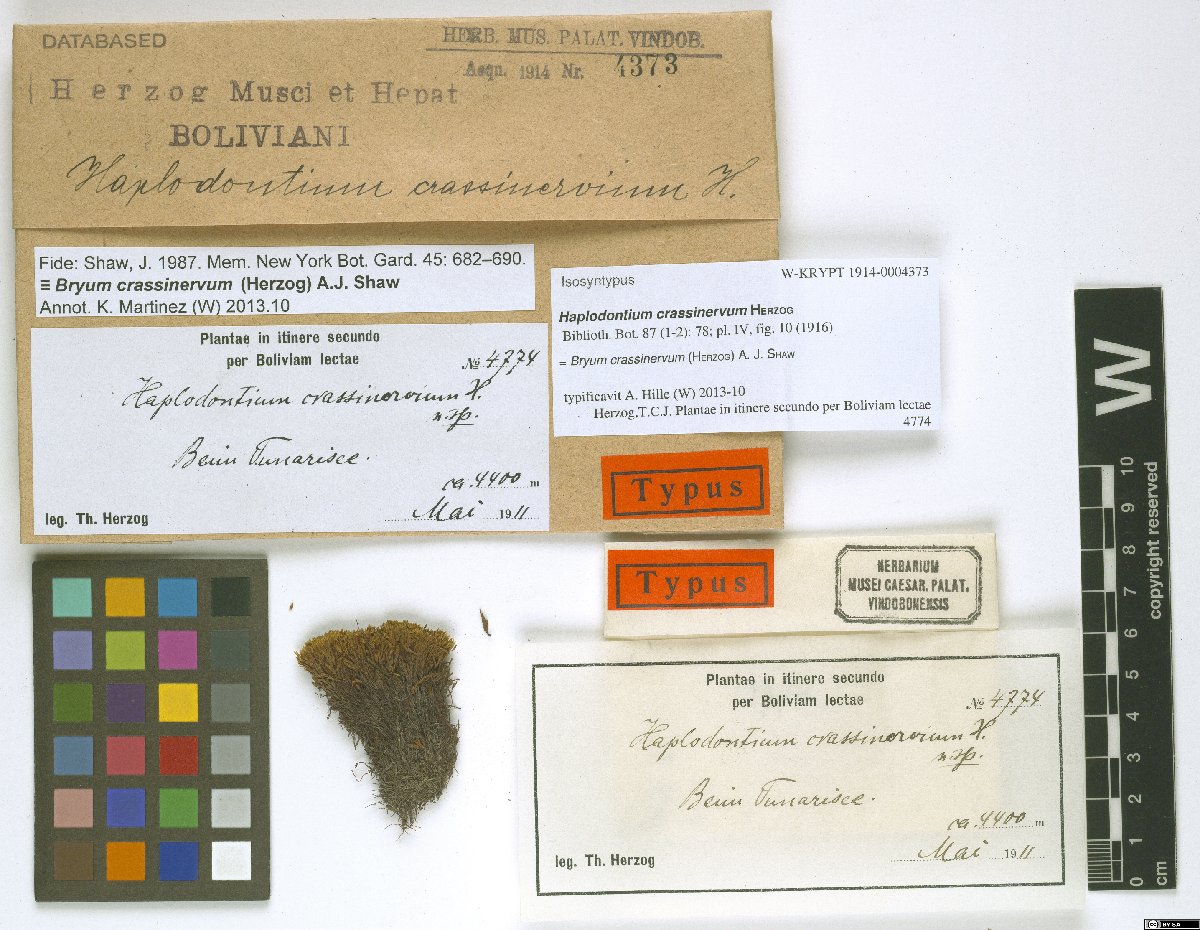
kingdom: Plantae
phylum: Bryophyta
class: Bryopsida
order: Bryales
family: Bryaceae
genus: Haplodontium
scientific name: Haplodontium crassinervum
